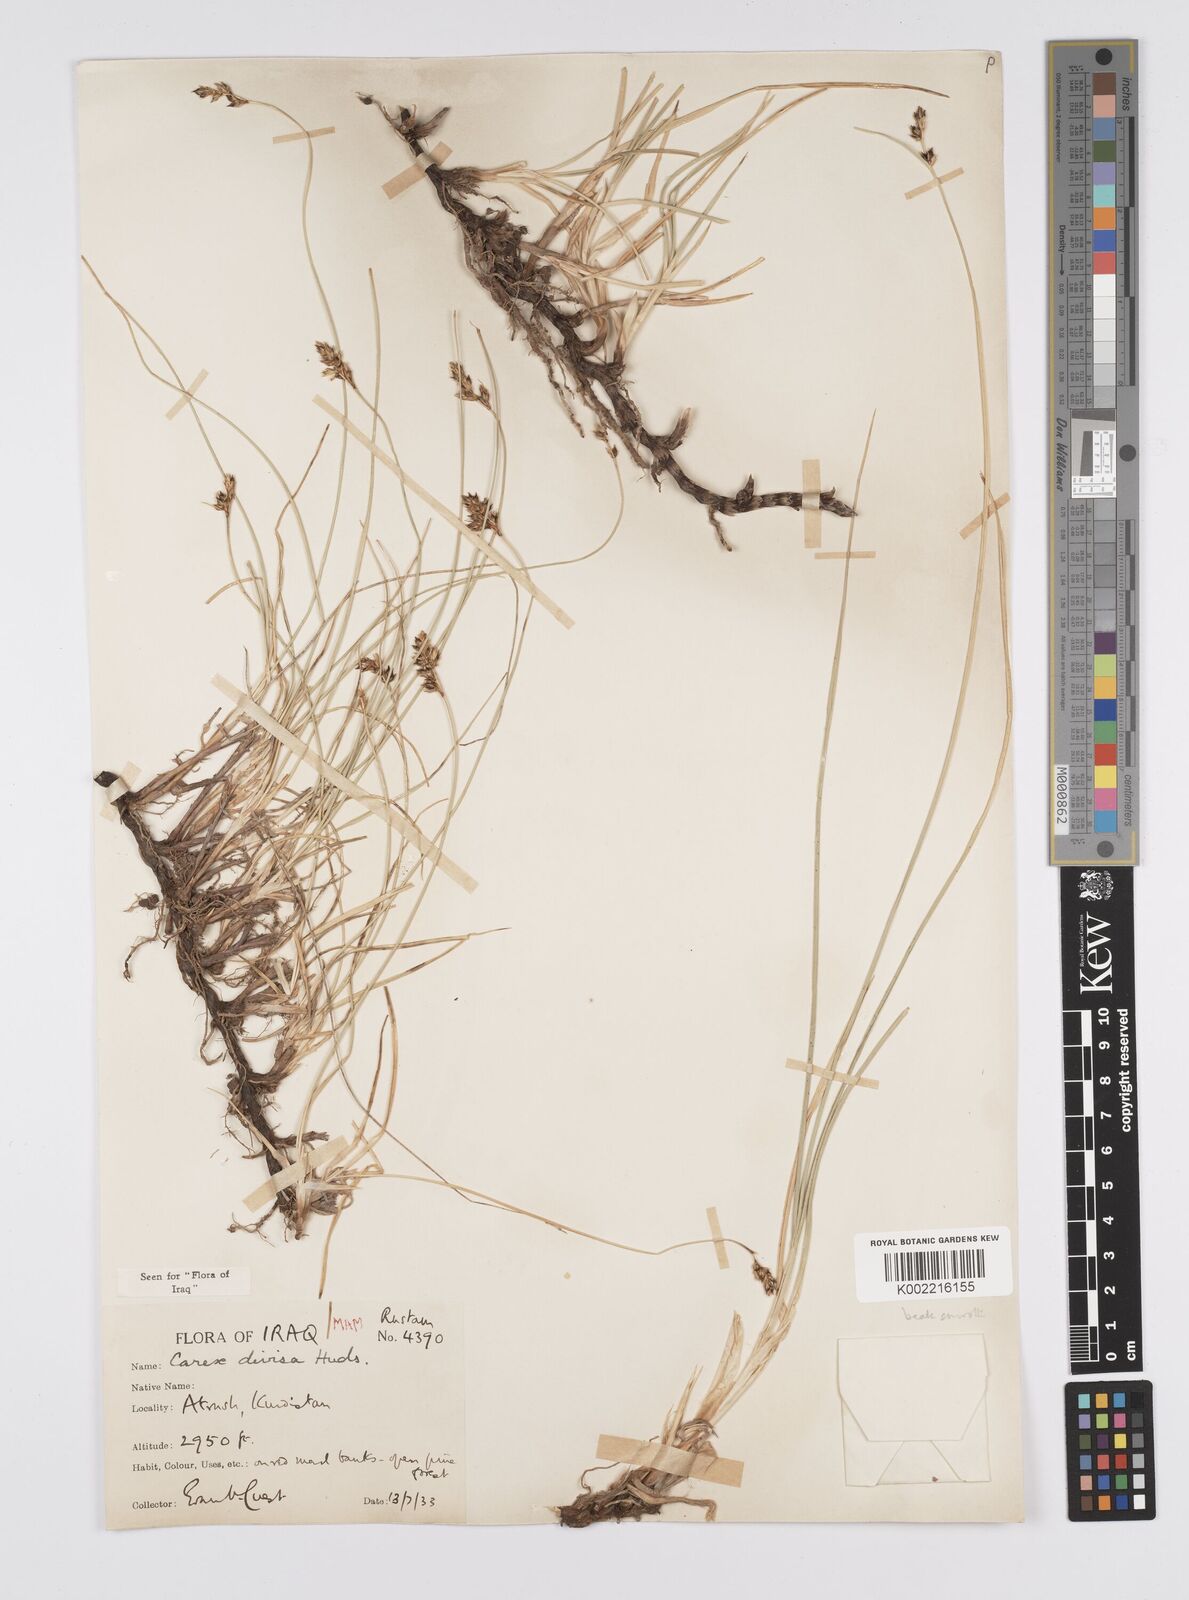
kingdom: Plantae
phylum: Tracheophyta
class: Liliopsida
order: Poales
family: Cyperaceae
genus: Carex
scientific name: Carex divisa
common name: Divided sedge
